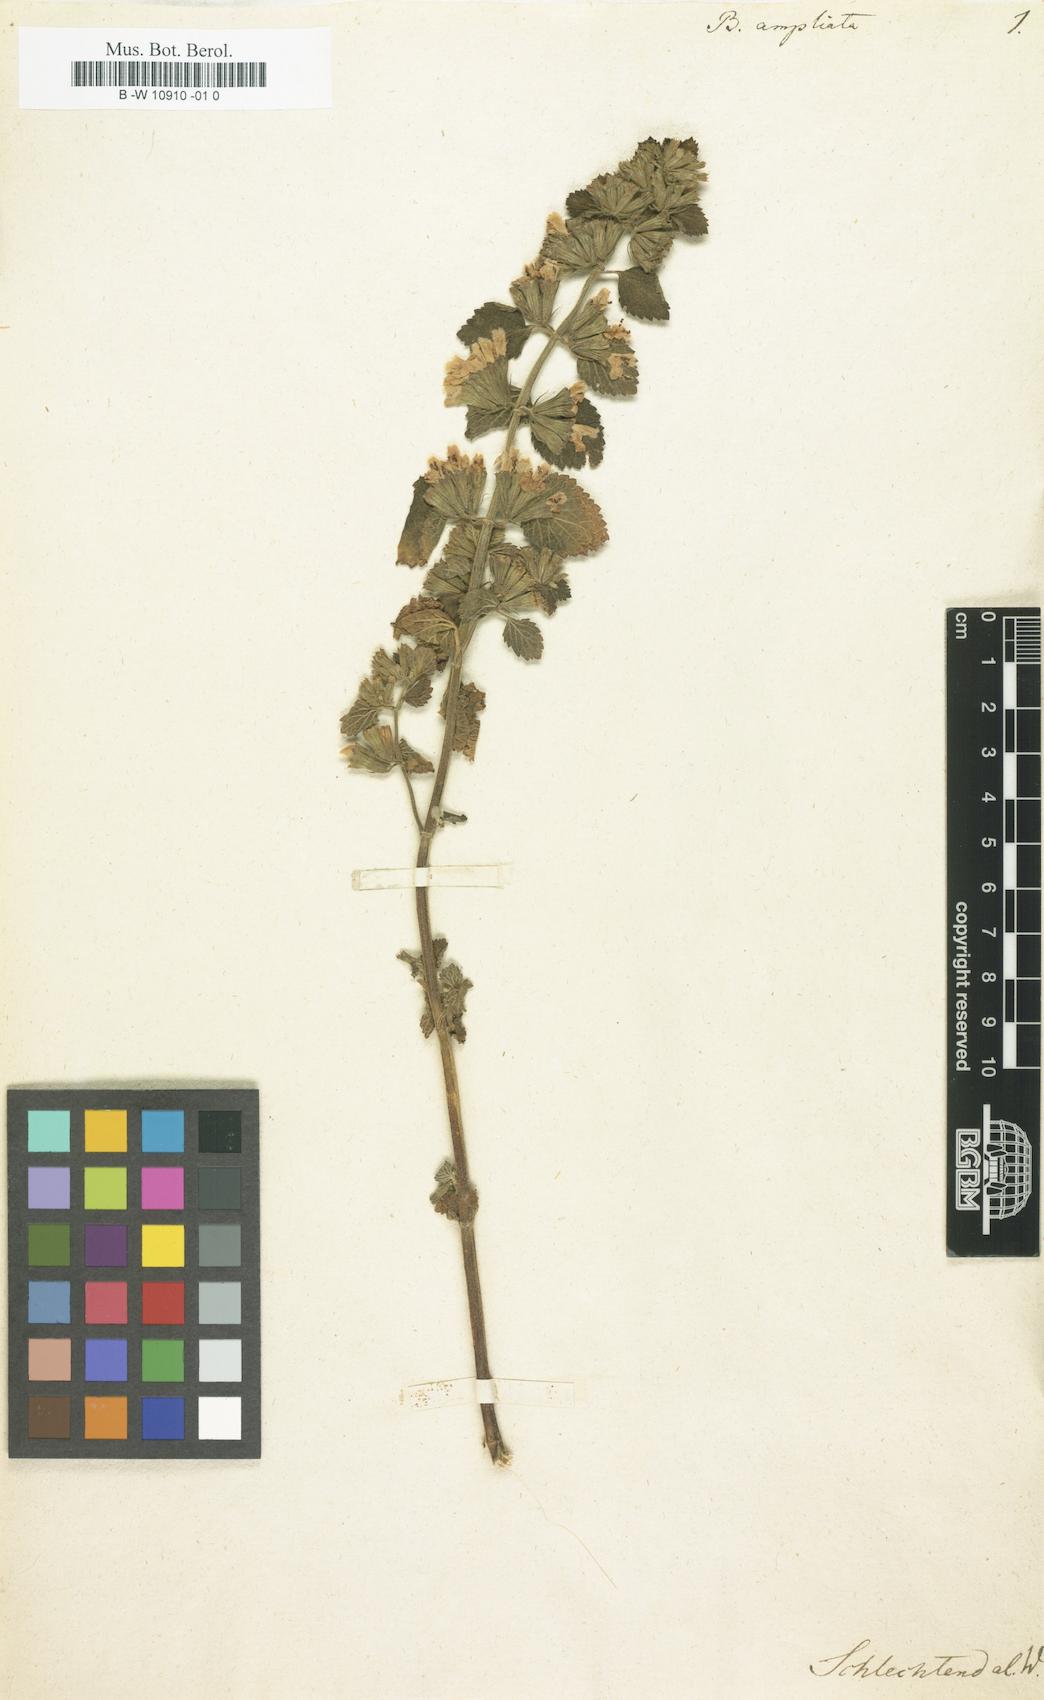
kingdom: Plantae
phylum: Tracheophyta
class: Magnoliopsida
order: Lamiales
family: Lamiaceae
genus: Ballota
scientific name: Ballota nigra
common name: Black horehound
